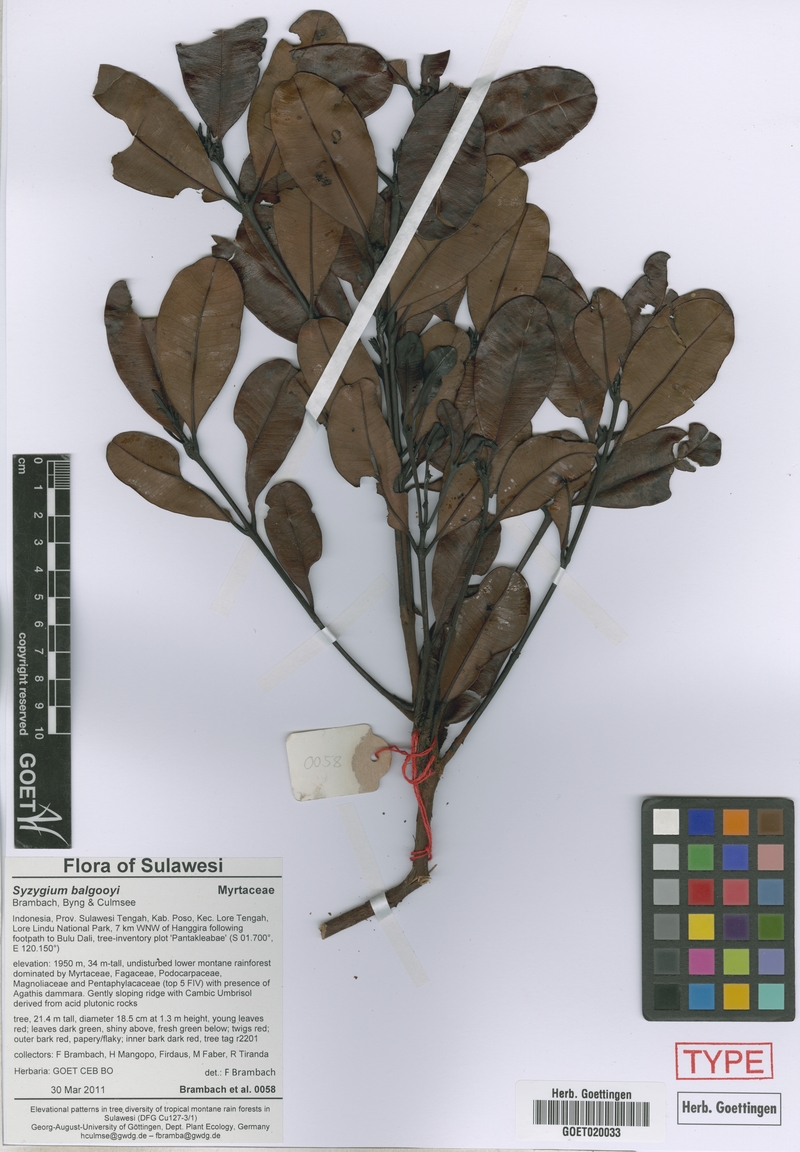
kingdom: Plantae
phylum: Tracheophyta
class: Magnoliopsida
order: Myrtales
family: Myrtaceae
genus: Syzygium
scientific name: Syzygium balgooyi
